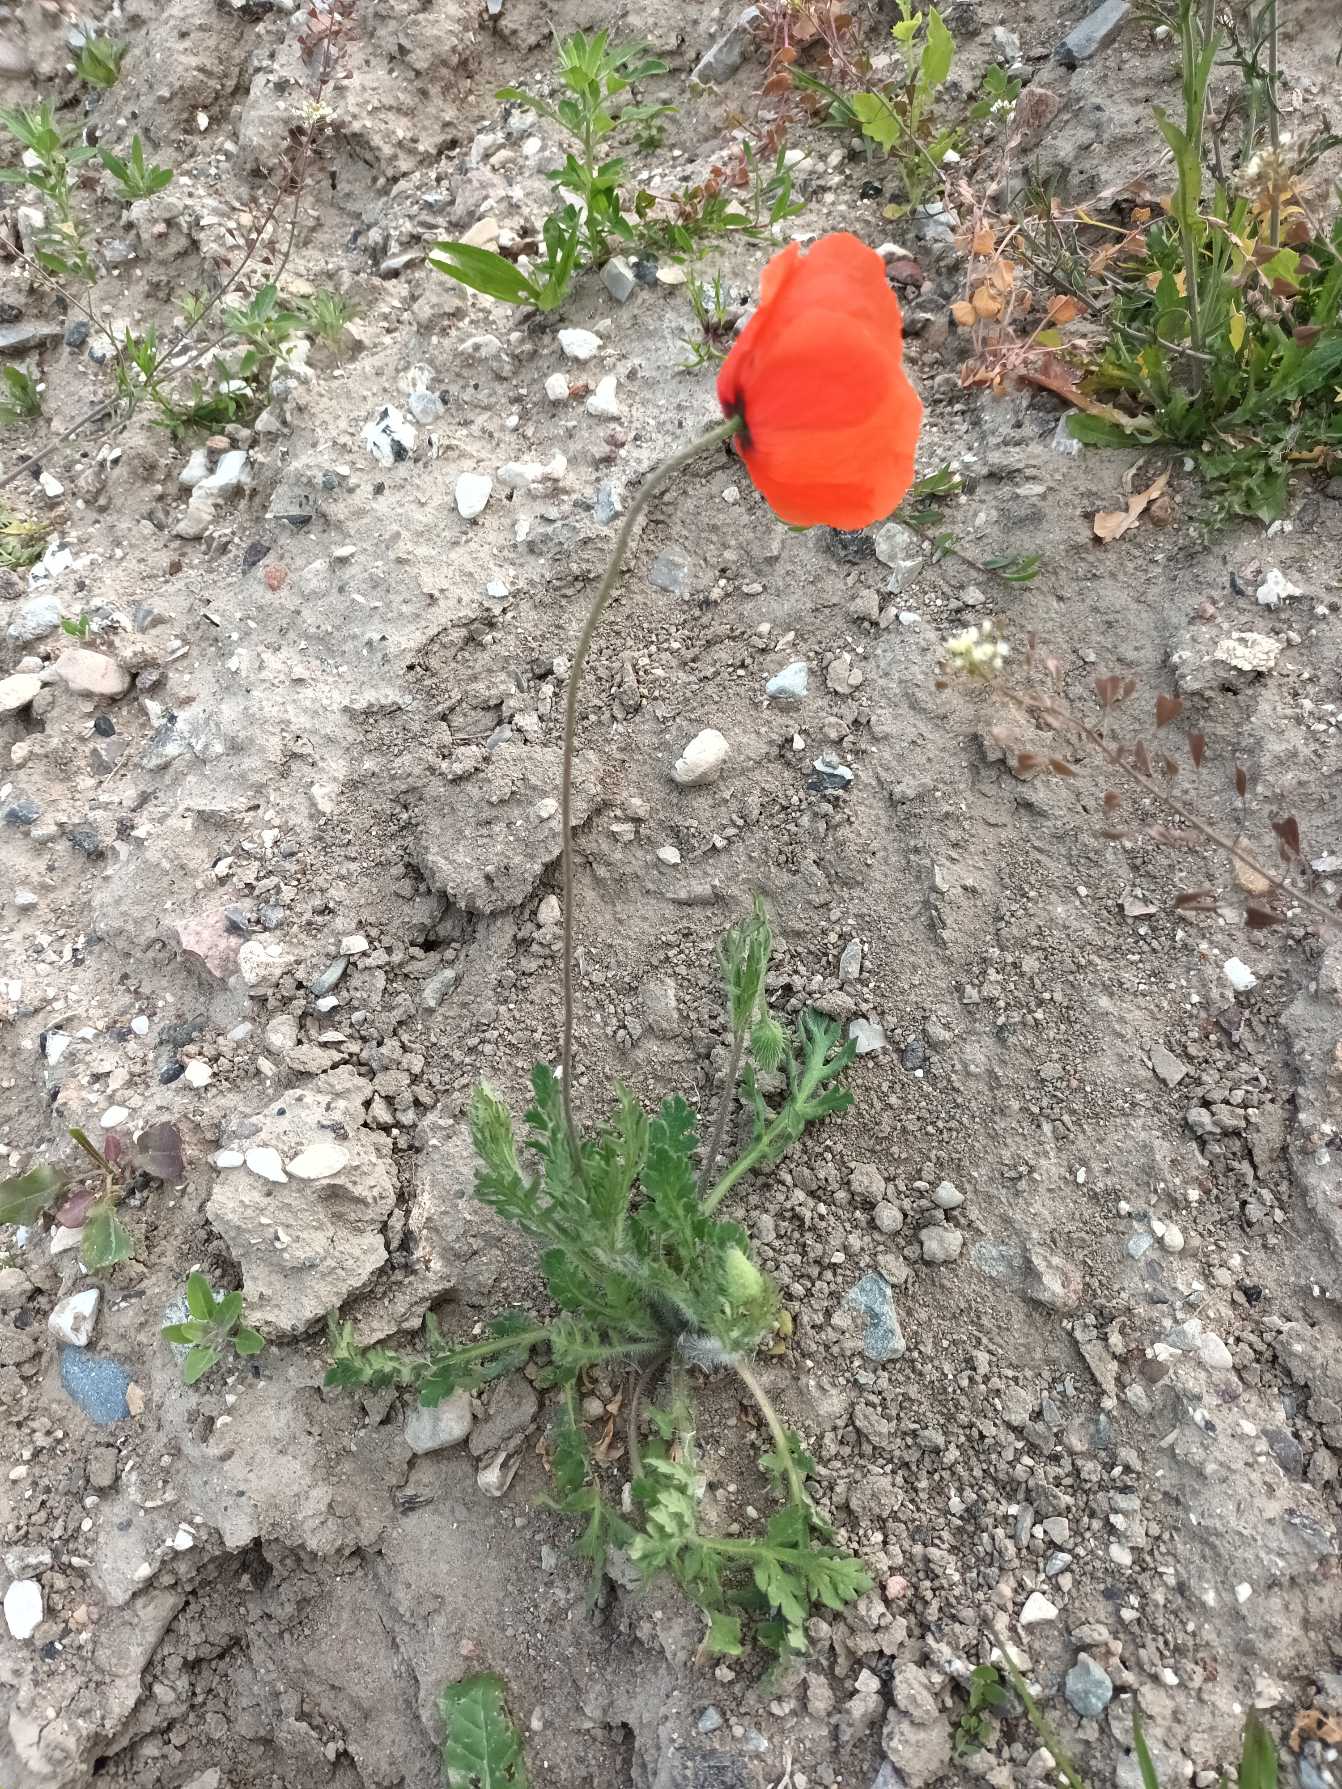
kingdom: Plantae
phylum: Tracheophyta
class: Magnoliopsida
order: Ranunculales
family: Papaveraceae
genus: Papaver
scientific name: Papaver dubium
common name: Gærde-valmue
